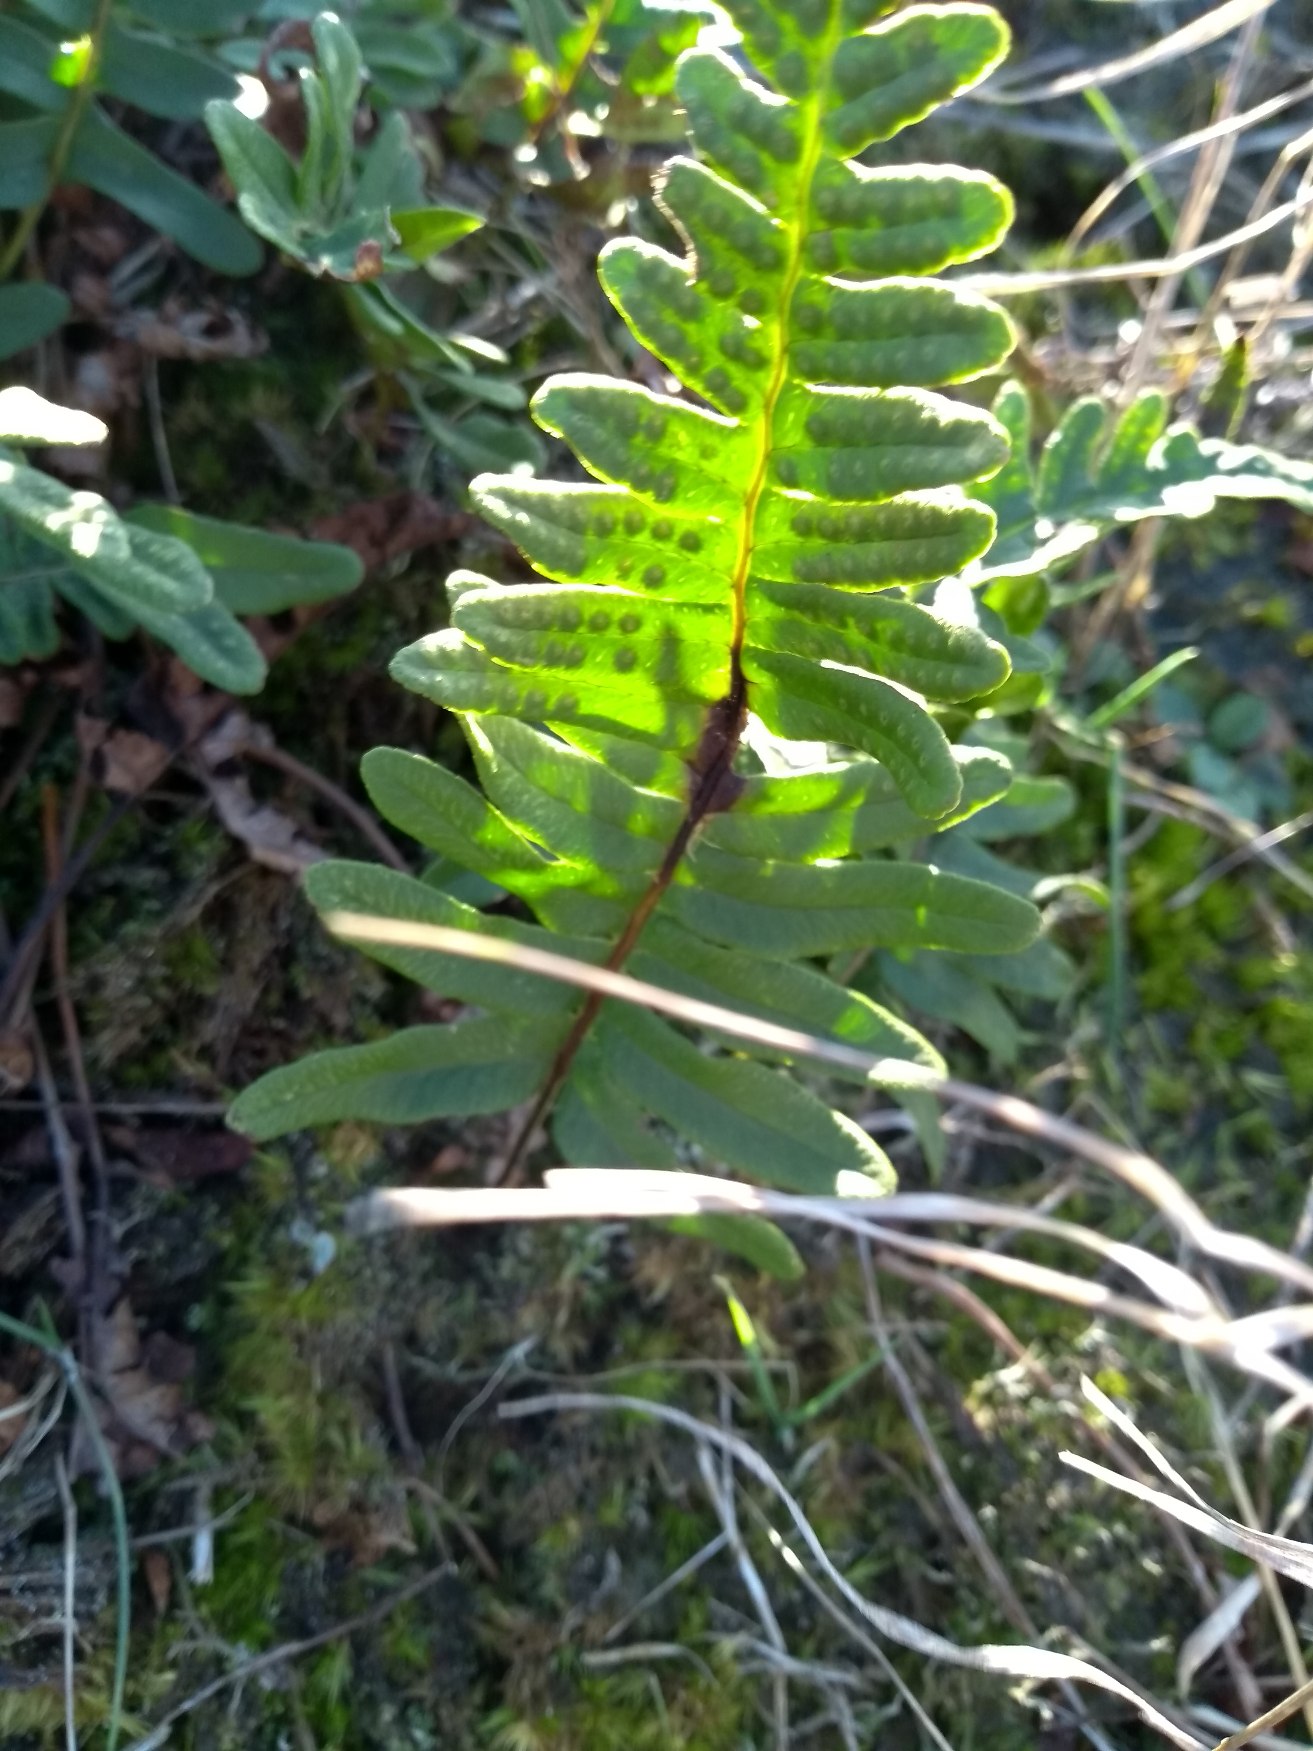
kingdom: Plantae
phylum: Tracheophyta
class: Polypodiopsida
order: Polypodiales
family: Polypodiaceae
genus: Polypodium
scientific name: Polypodium vulgare
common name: Almindelig engelsød
